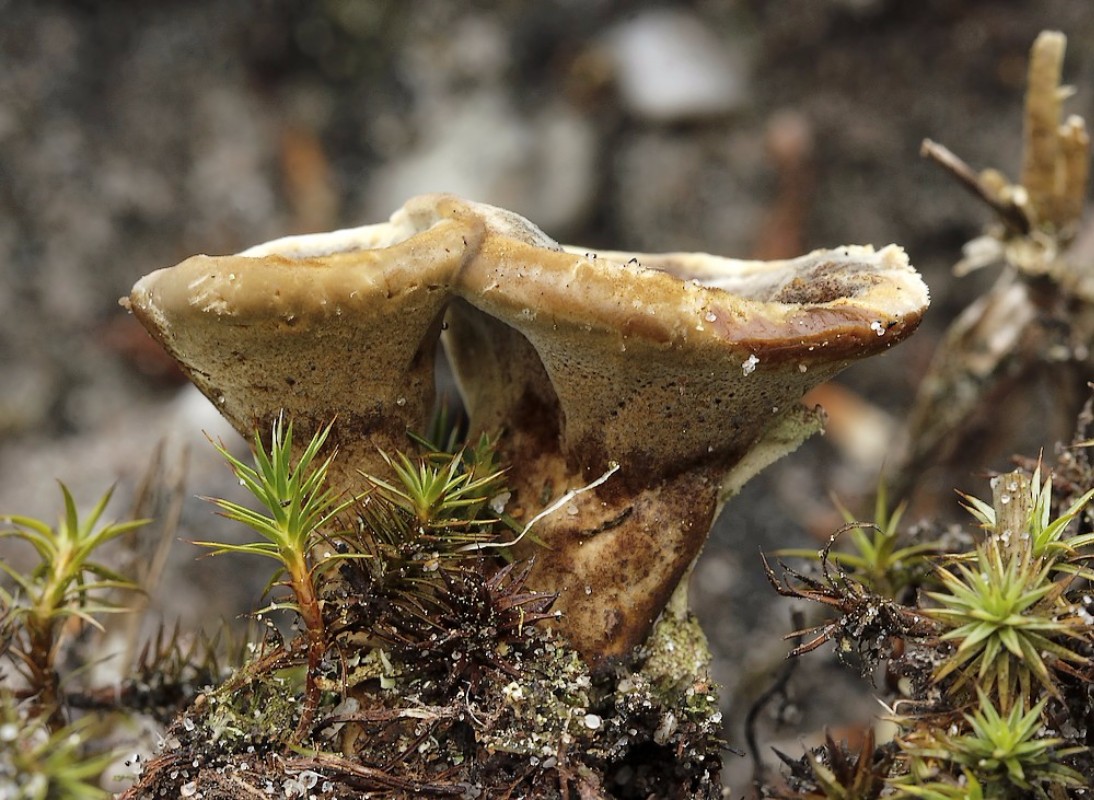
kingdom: Fungi
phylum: Basidiomycota
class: Agaricomycetes
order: Hymenochaetales
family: Hymenochaetaceae
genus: Coltricia
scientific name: Coltricia perennis
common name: almindelig sandporesvamp
